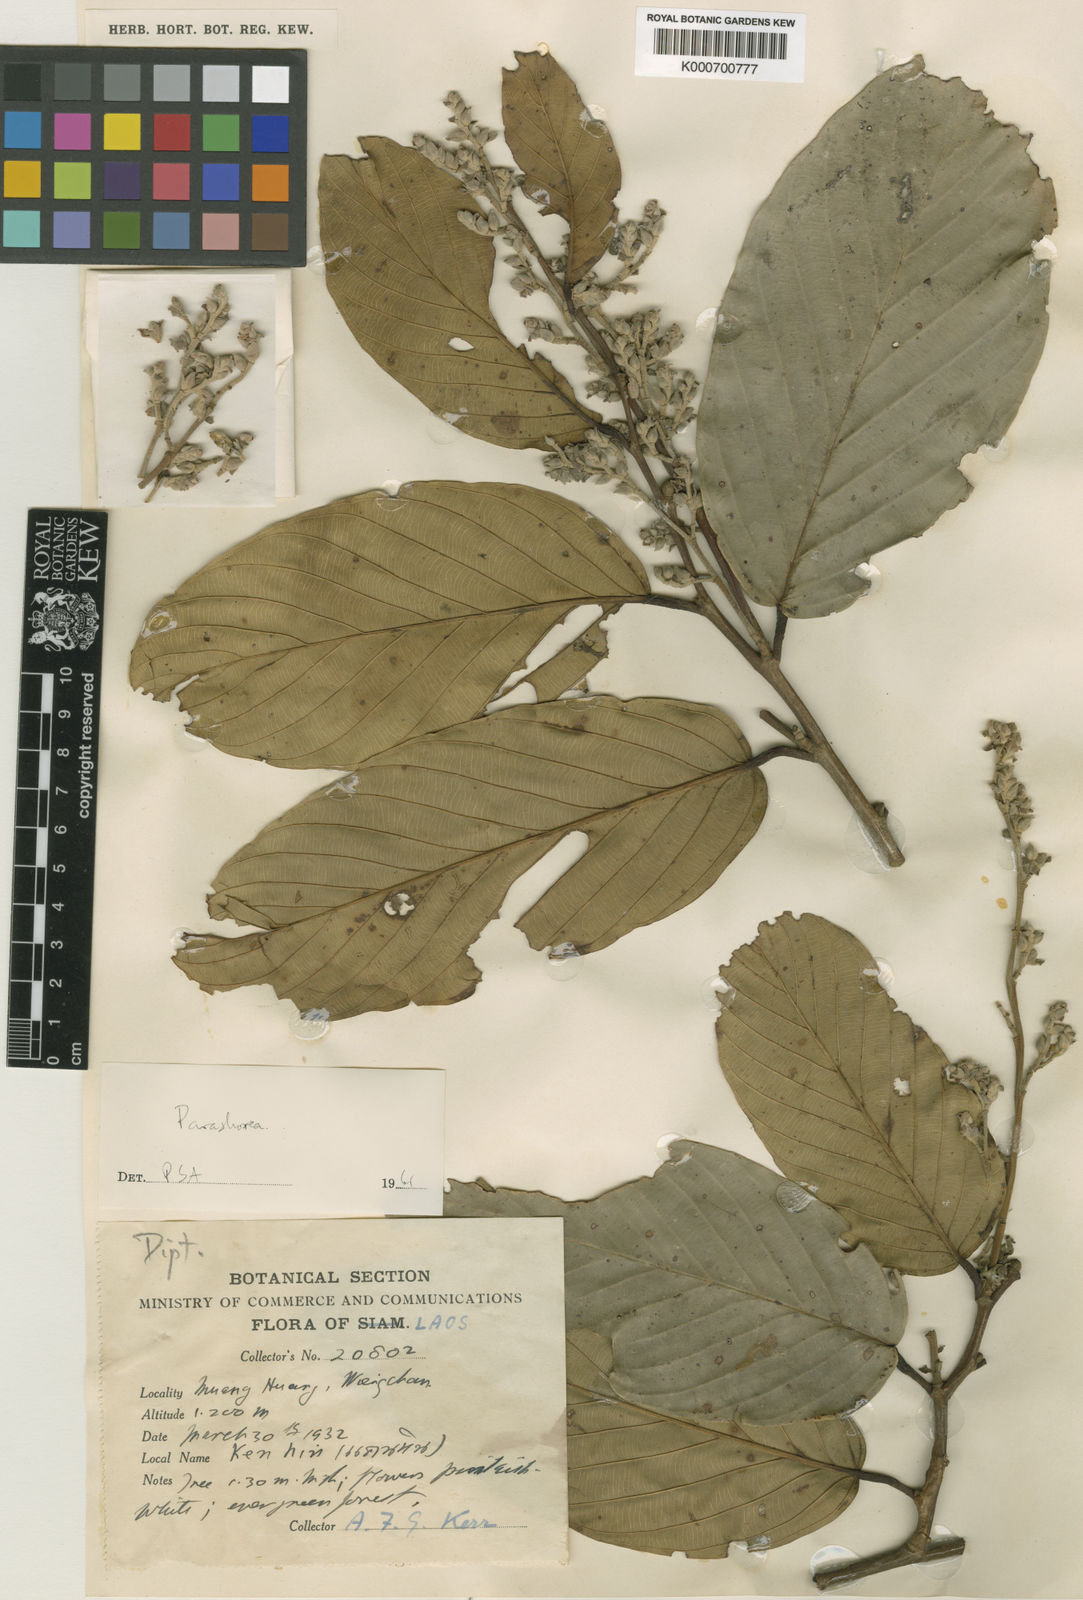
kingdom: Plantae
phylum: Tracheophyta
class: Magnoliopsida
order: Malvales
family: Dipterocarpaceae
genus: Parashorea
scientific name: Parashorea buchananii
